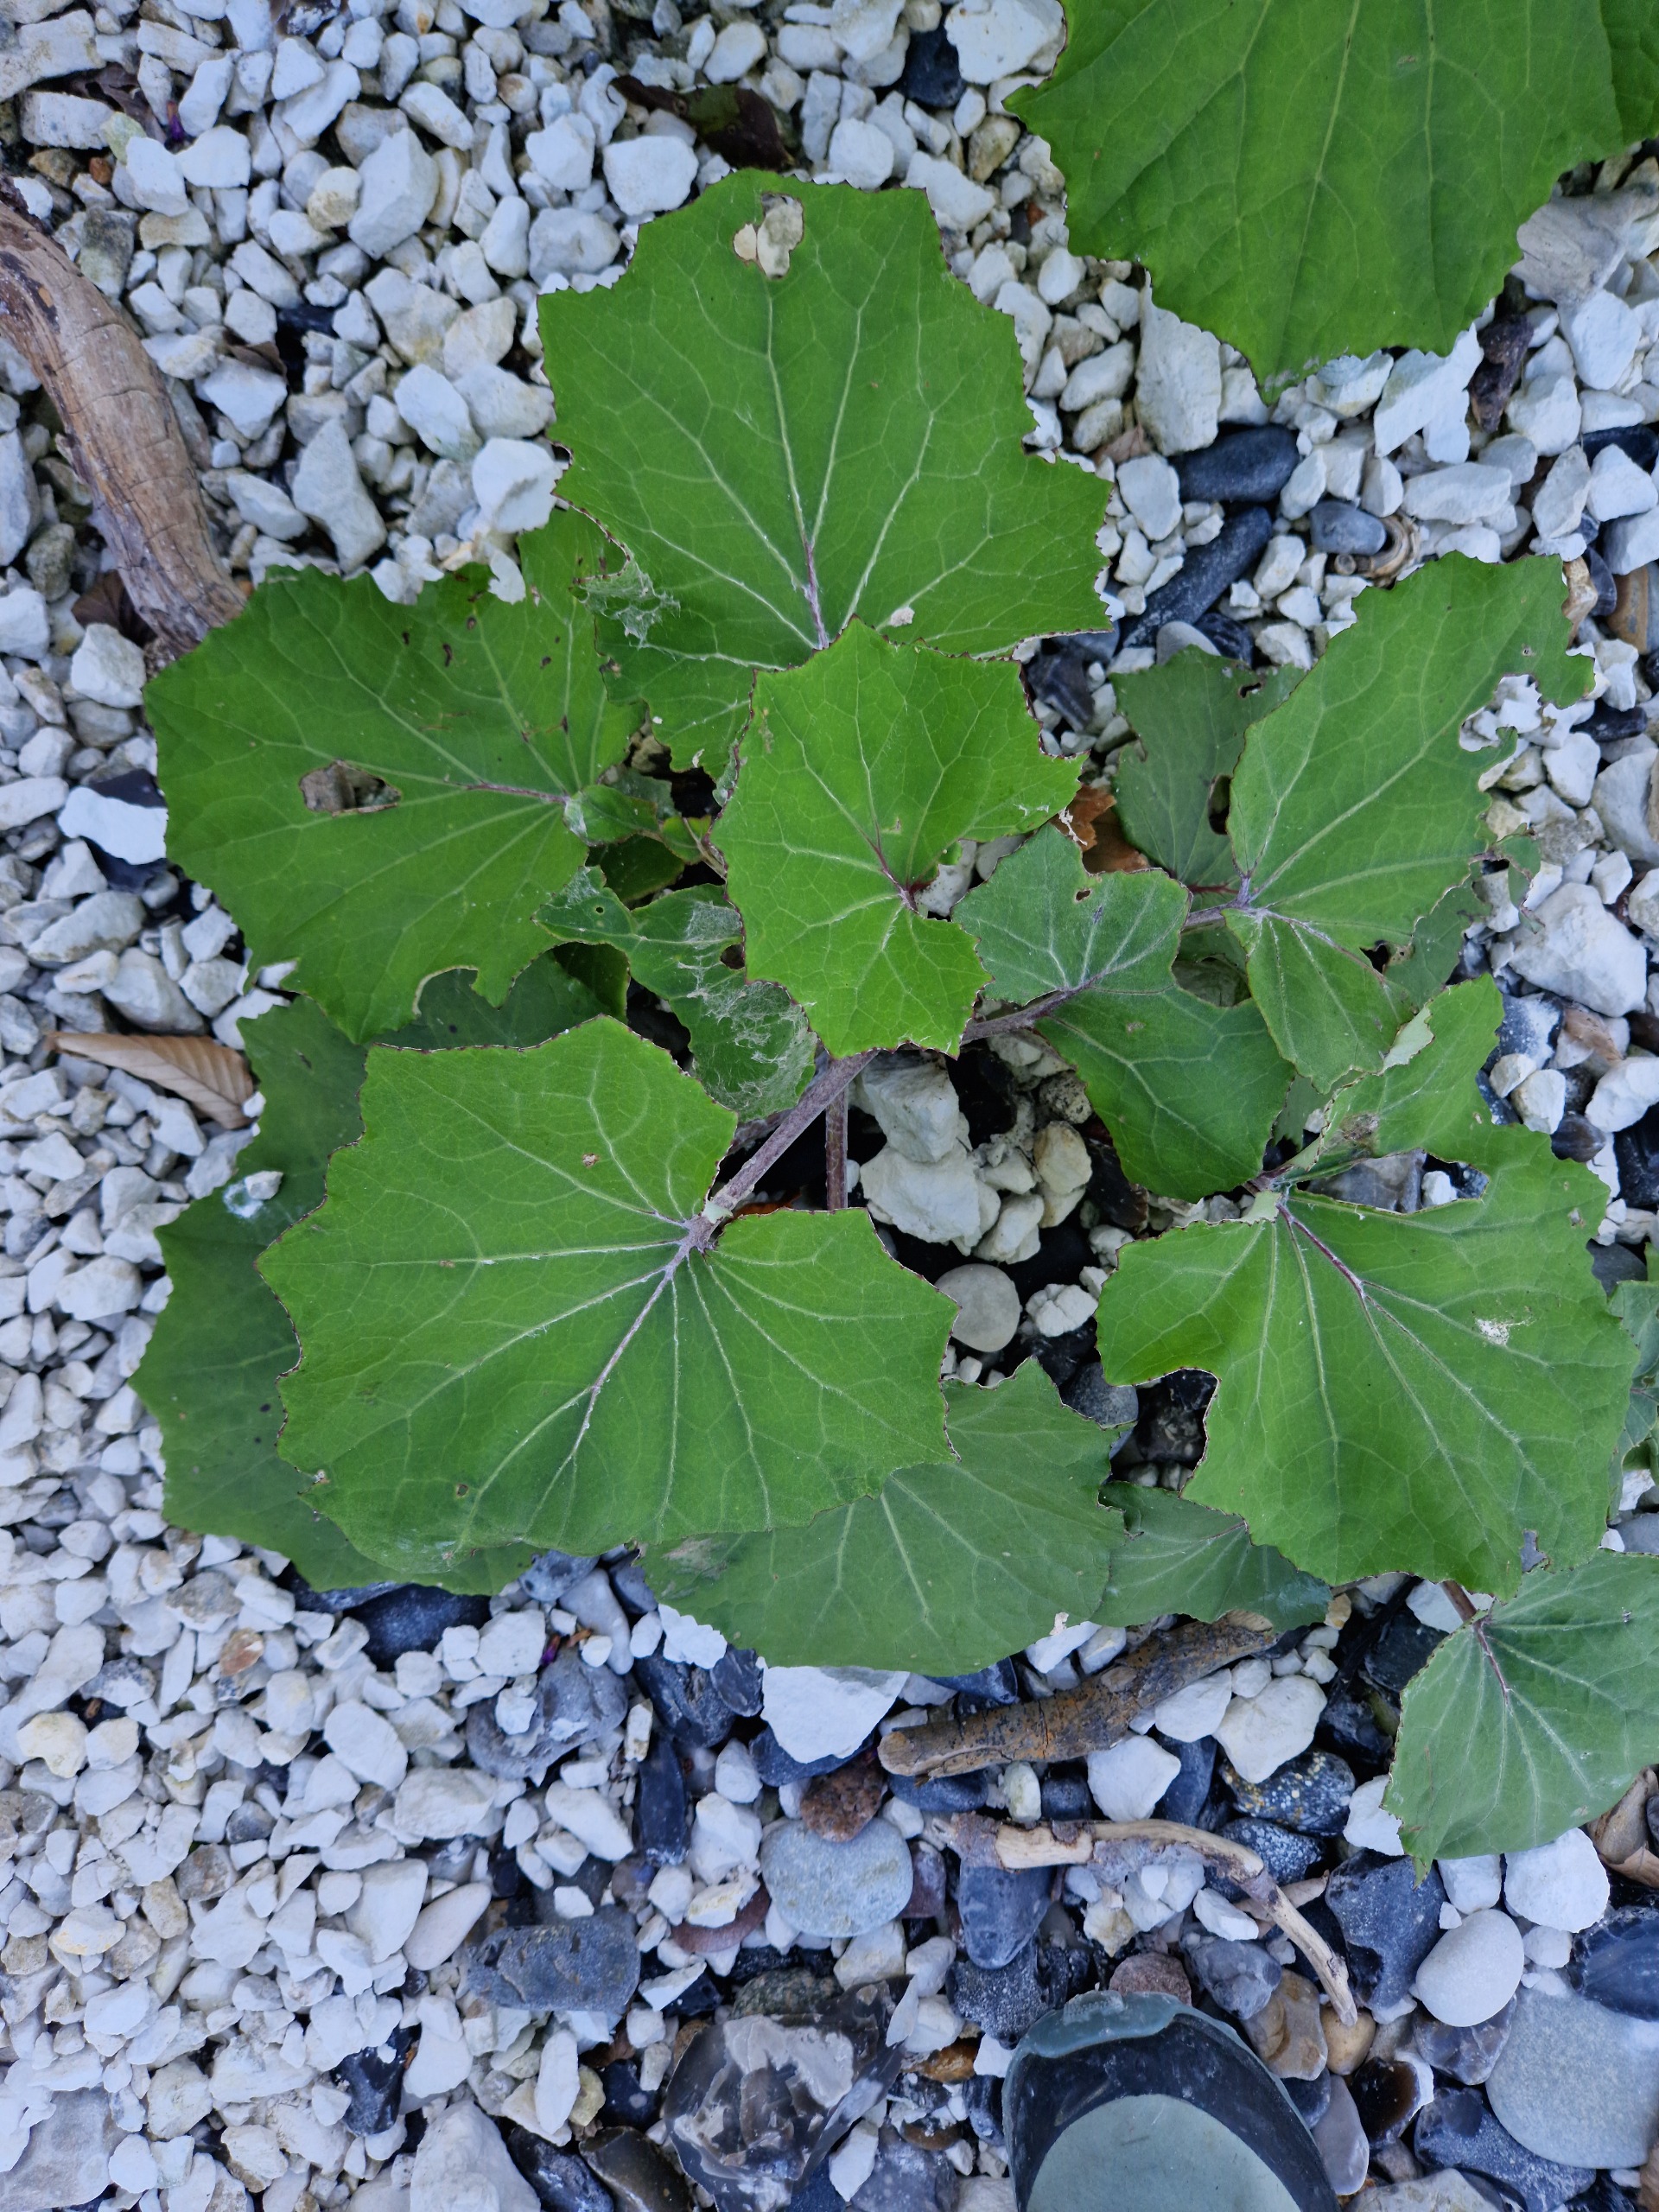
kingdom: Plantae
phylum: Tracheophyta
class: Magnoliopsida
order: Asterales
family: Asteraceae
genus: Tussilago
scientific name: Tussilago farfara
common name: Følfod
